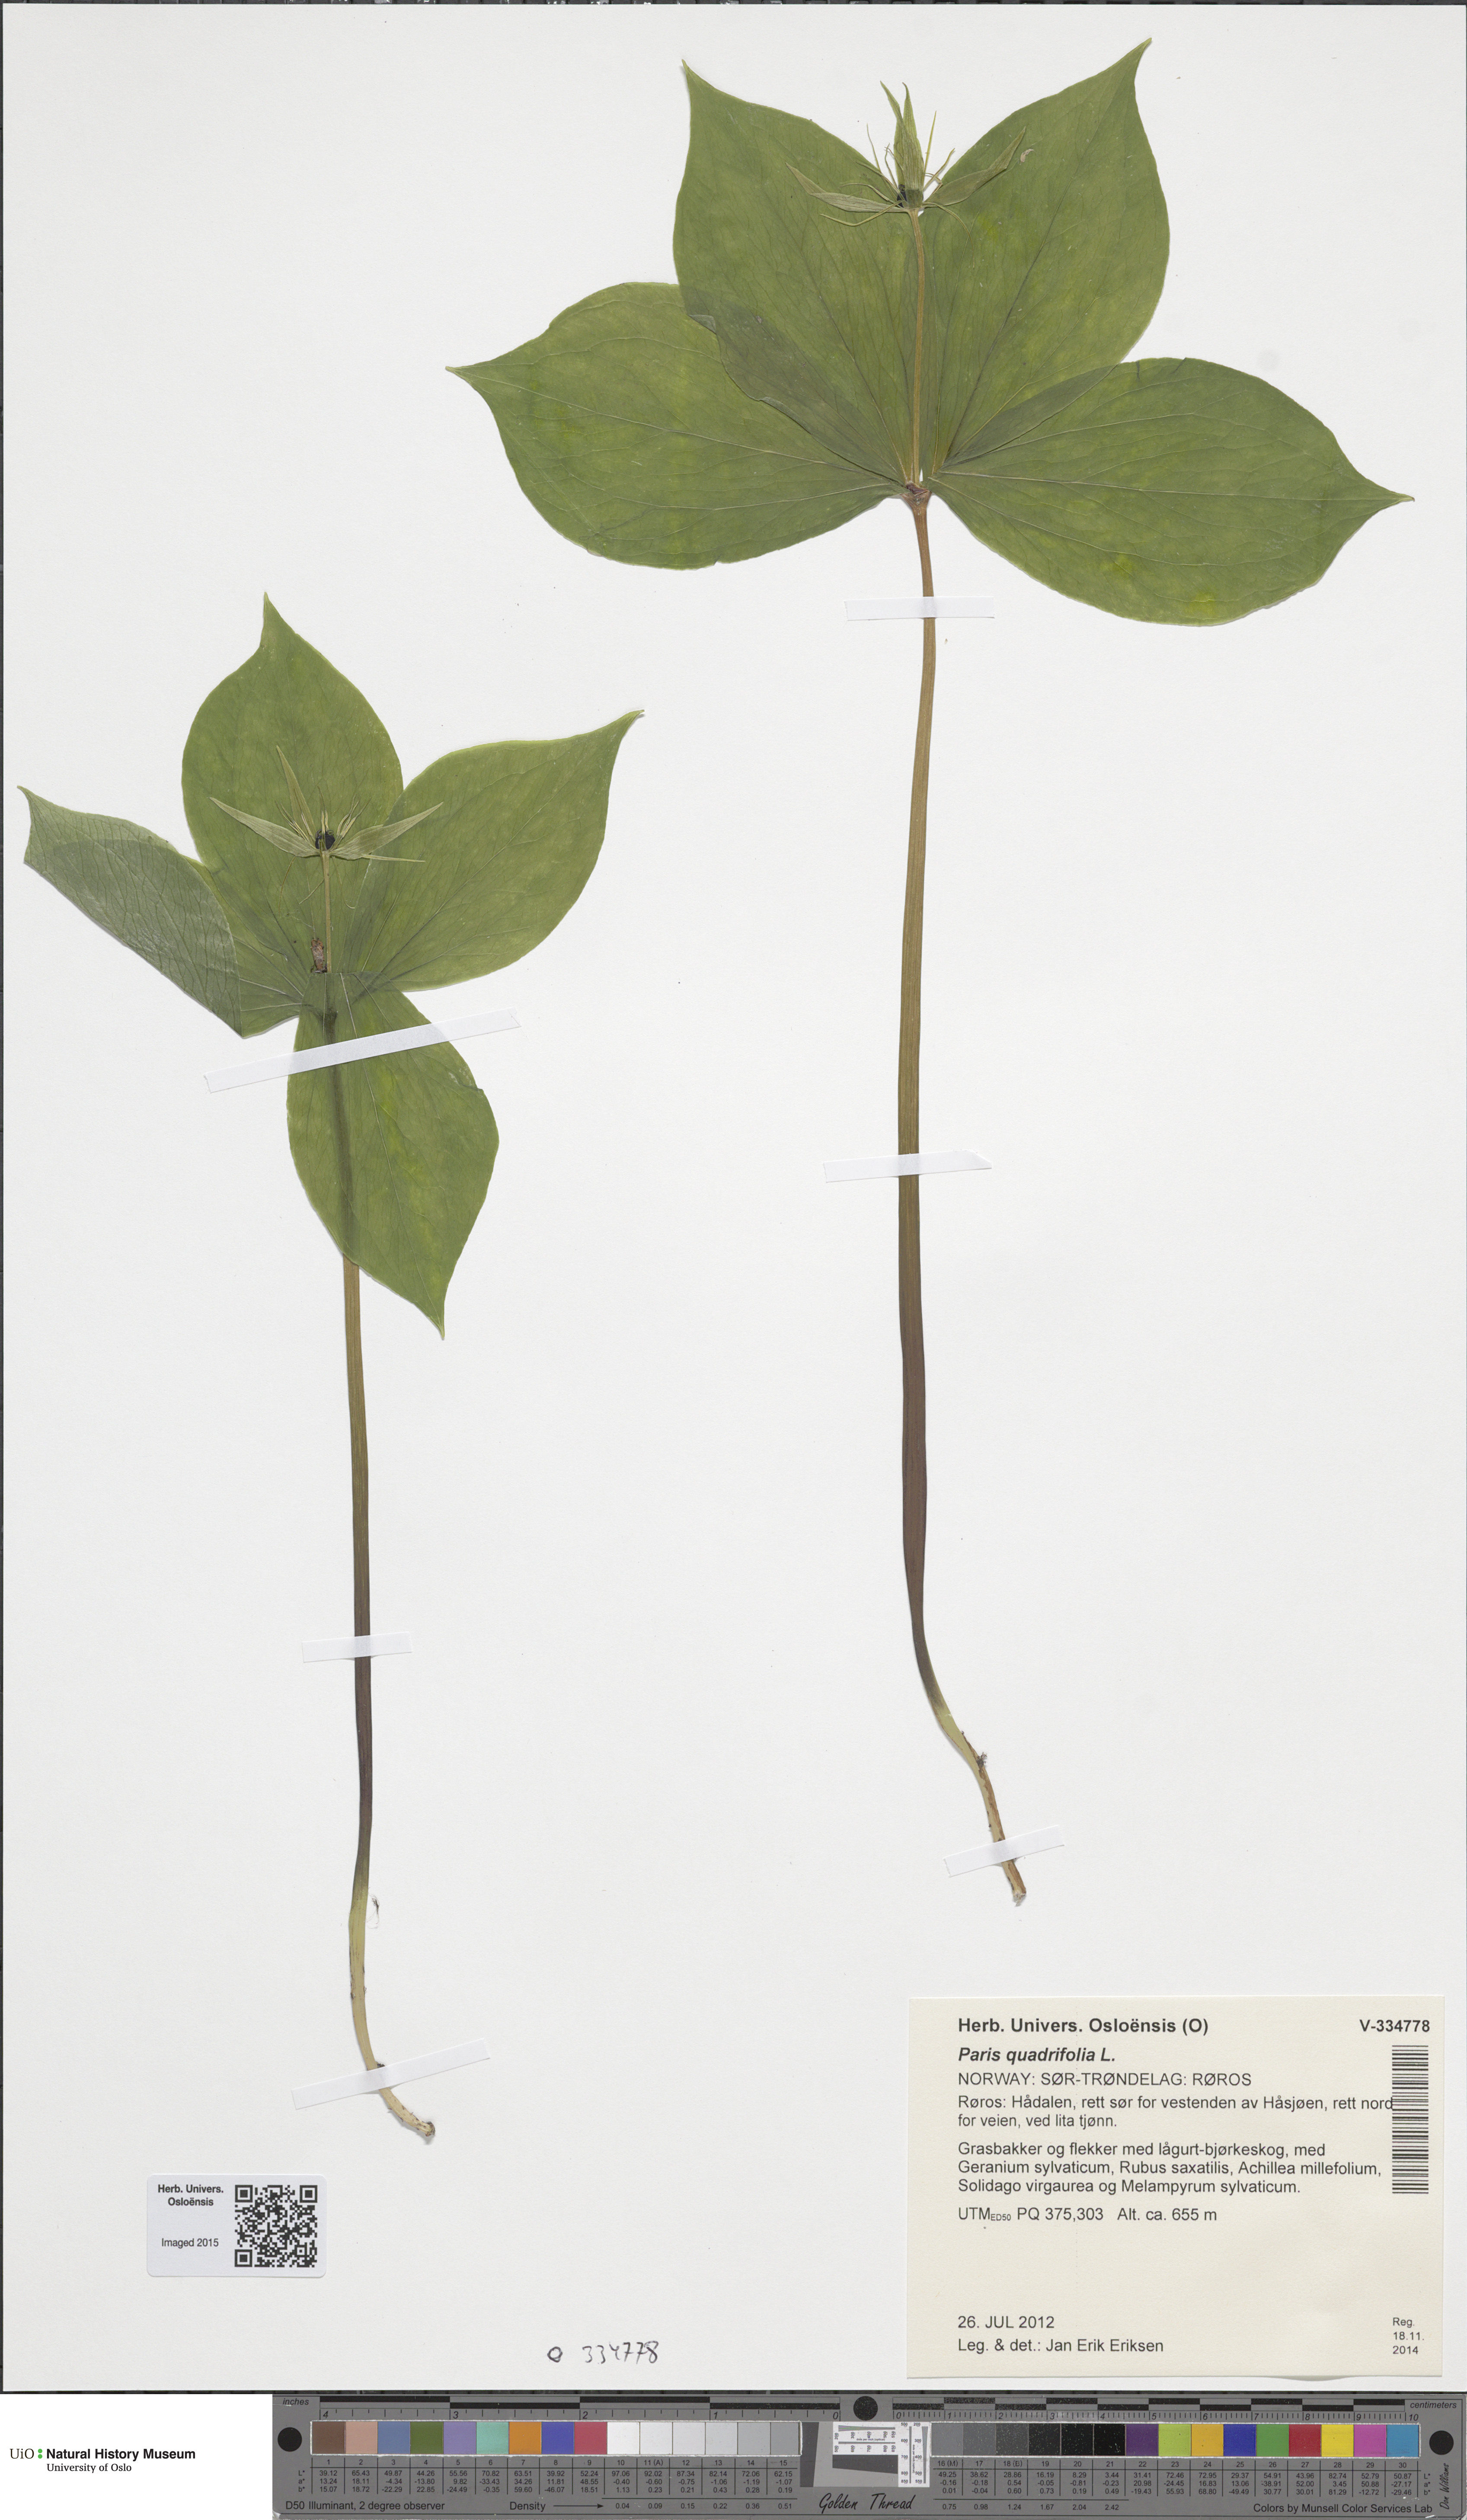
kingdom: Plantae
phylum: Tracheophyta
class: Liliopsida
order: Liliales
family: Melanthiaceae
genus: Paris
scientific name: Paris quadrifolia
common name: Herb-paris
